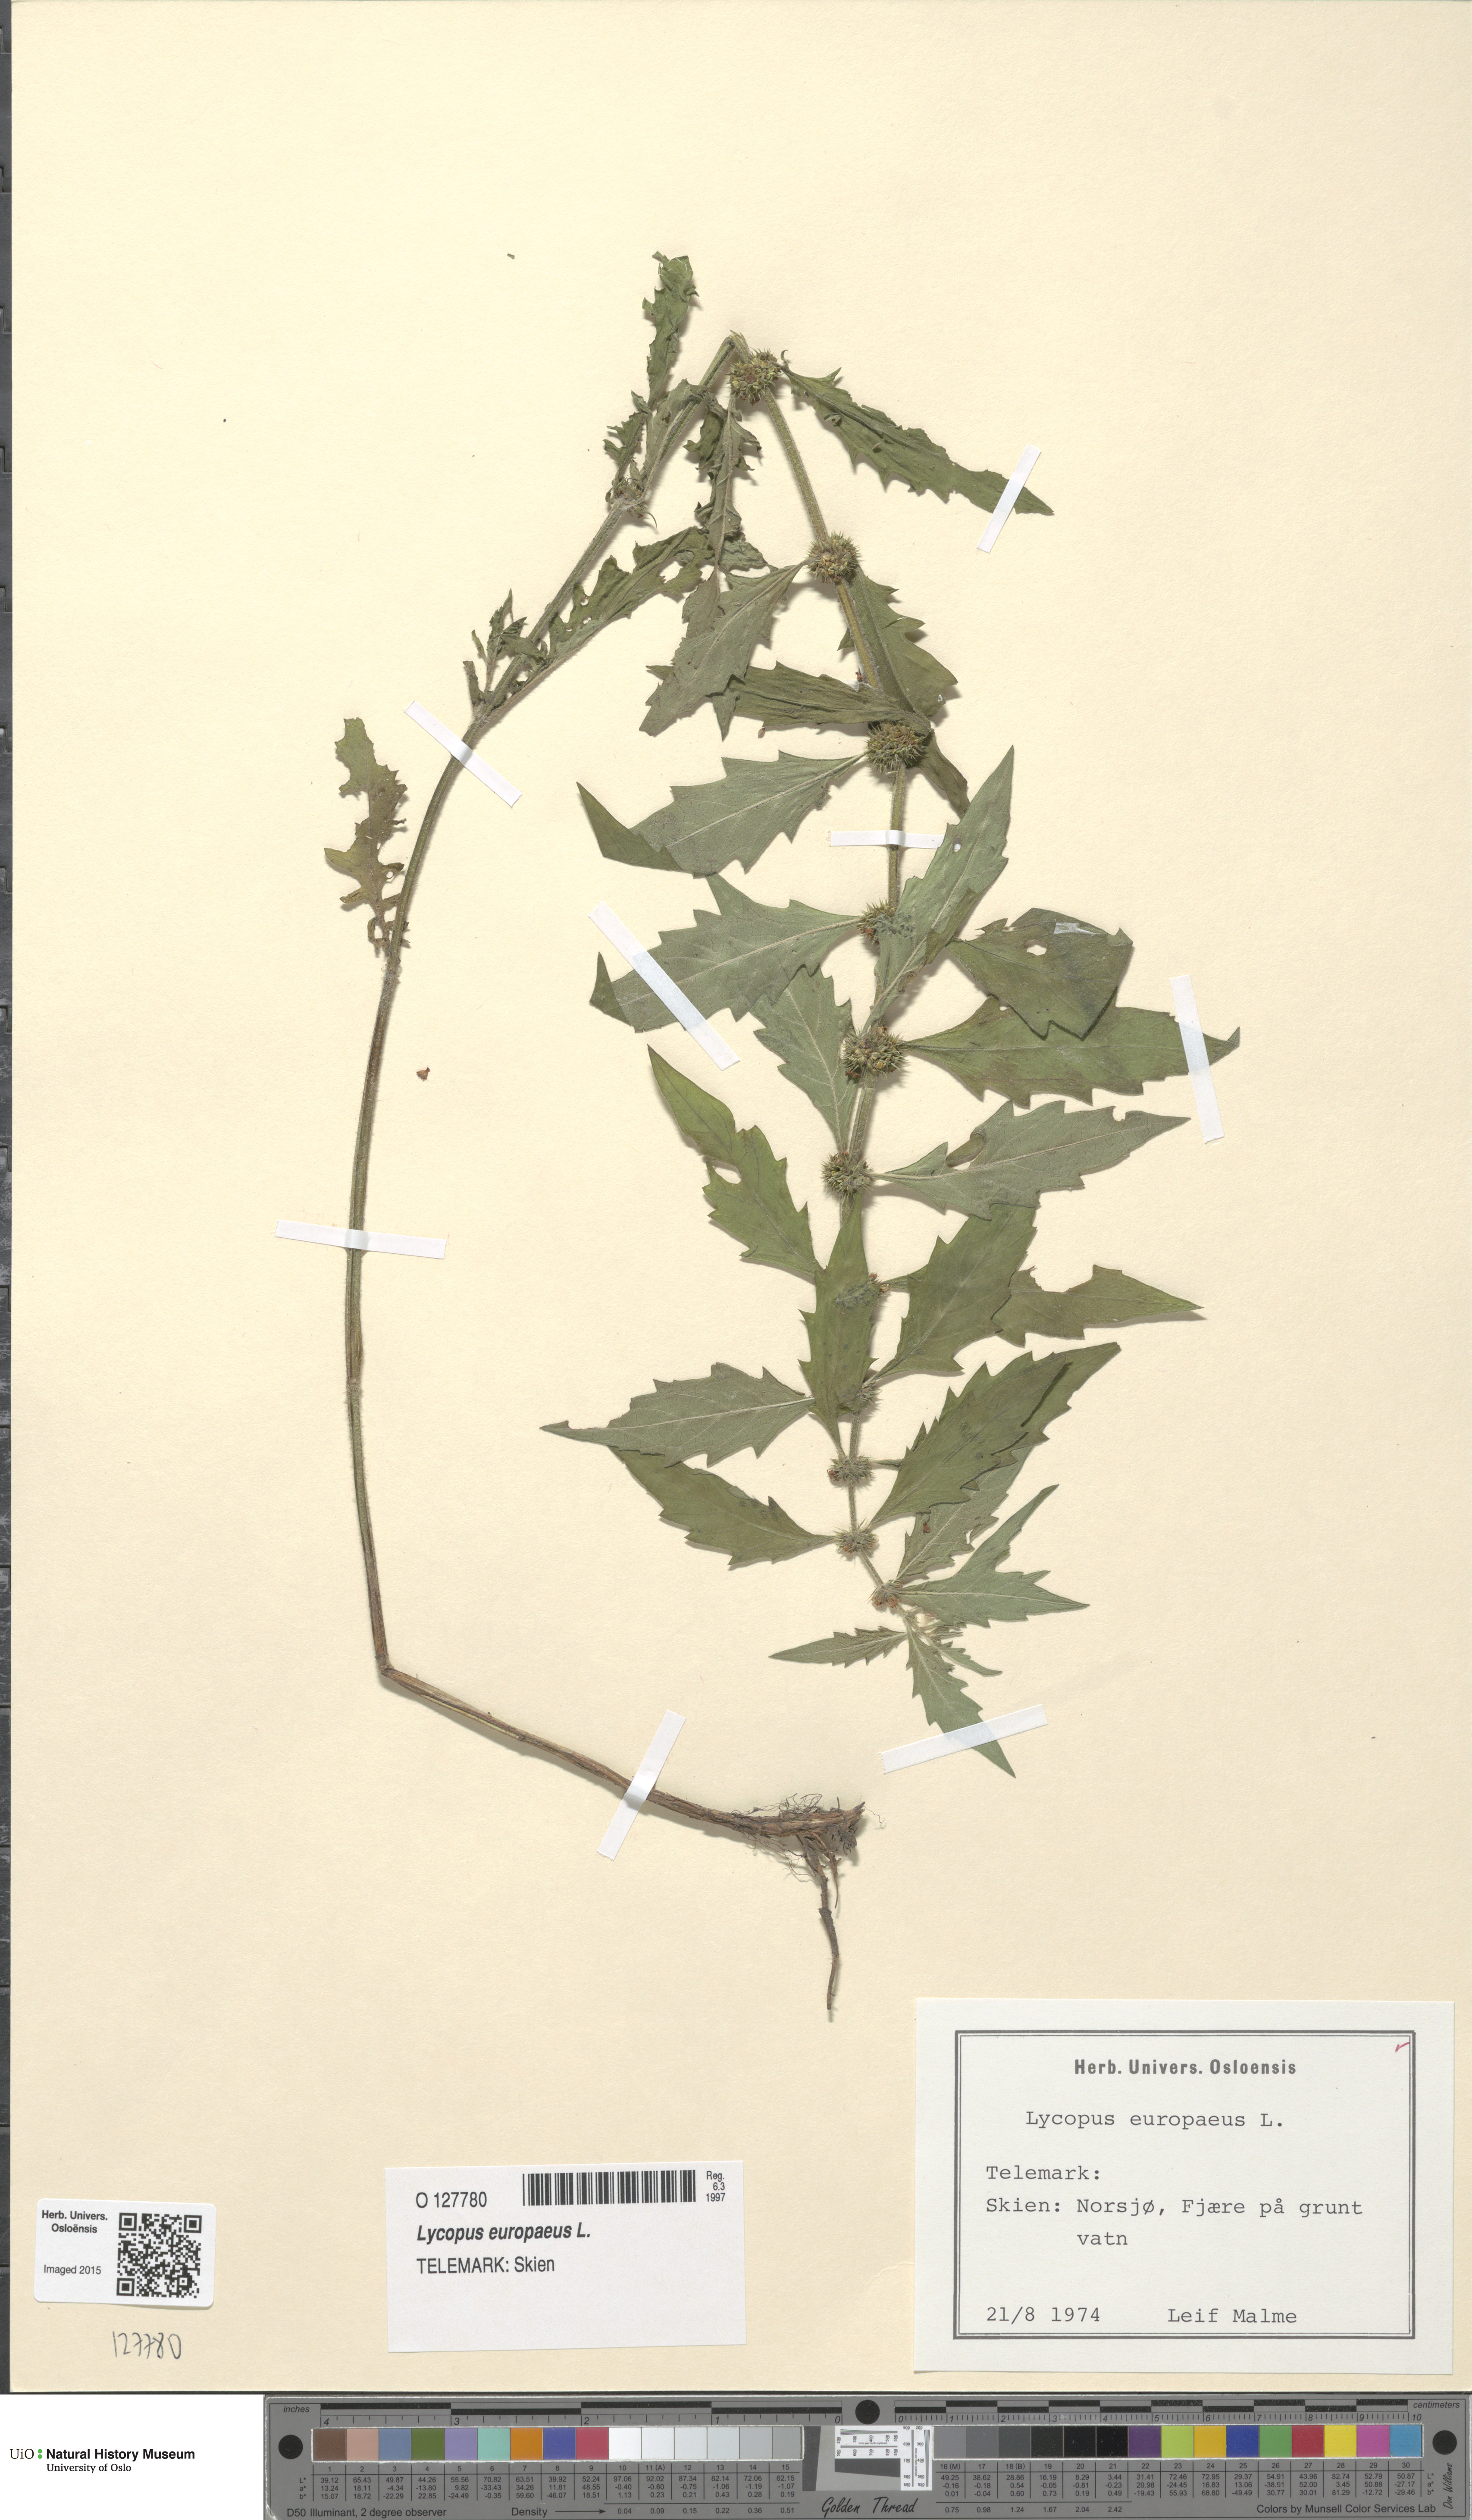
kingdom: Plantae
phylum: Tracheophyta
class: Magnoliopsida
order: Lamiales
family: Lamiaceae
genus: Lycopus
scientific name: Lycopus europaeus
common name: European bugleweed
